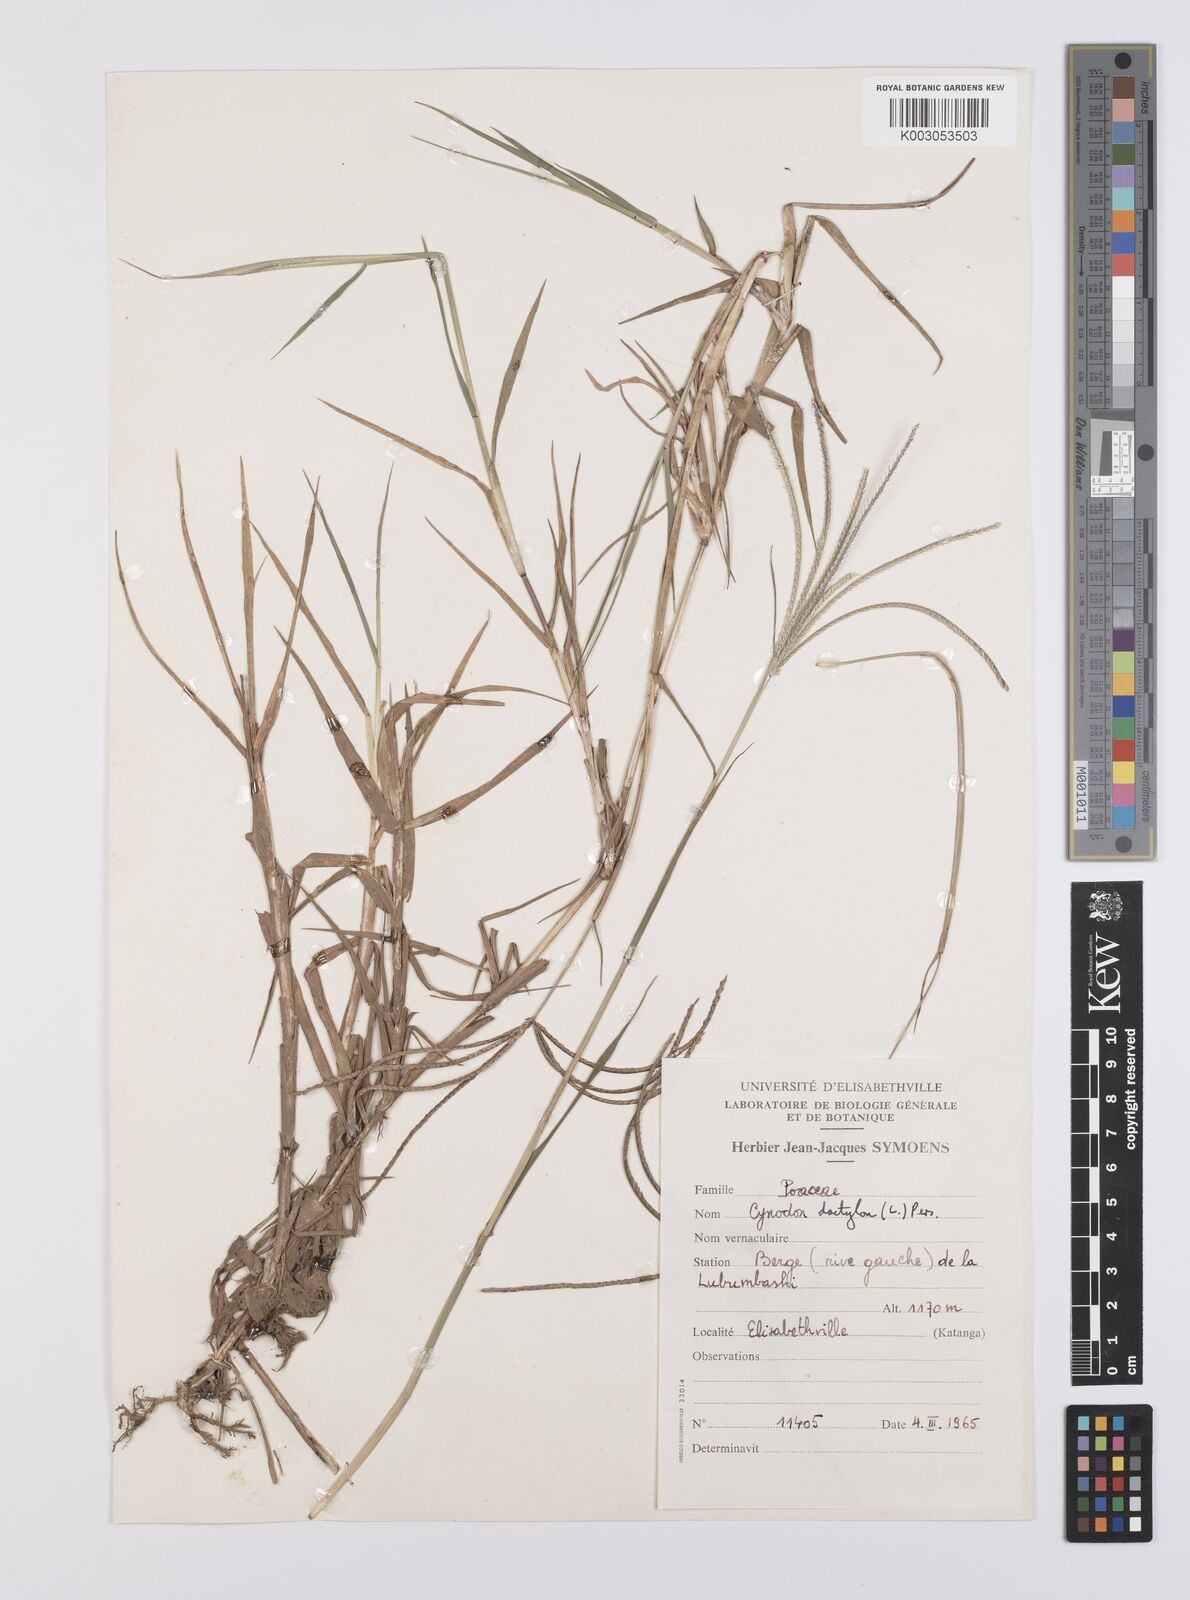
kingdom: Plantae
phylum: Tracheophyta
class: Liliopsida
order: Poales
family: Poaceae
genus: Cynodon
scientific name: Cynodon nlemfuensis
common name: African bermudagrass
